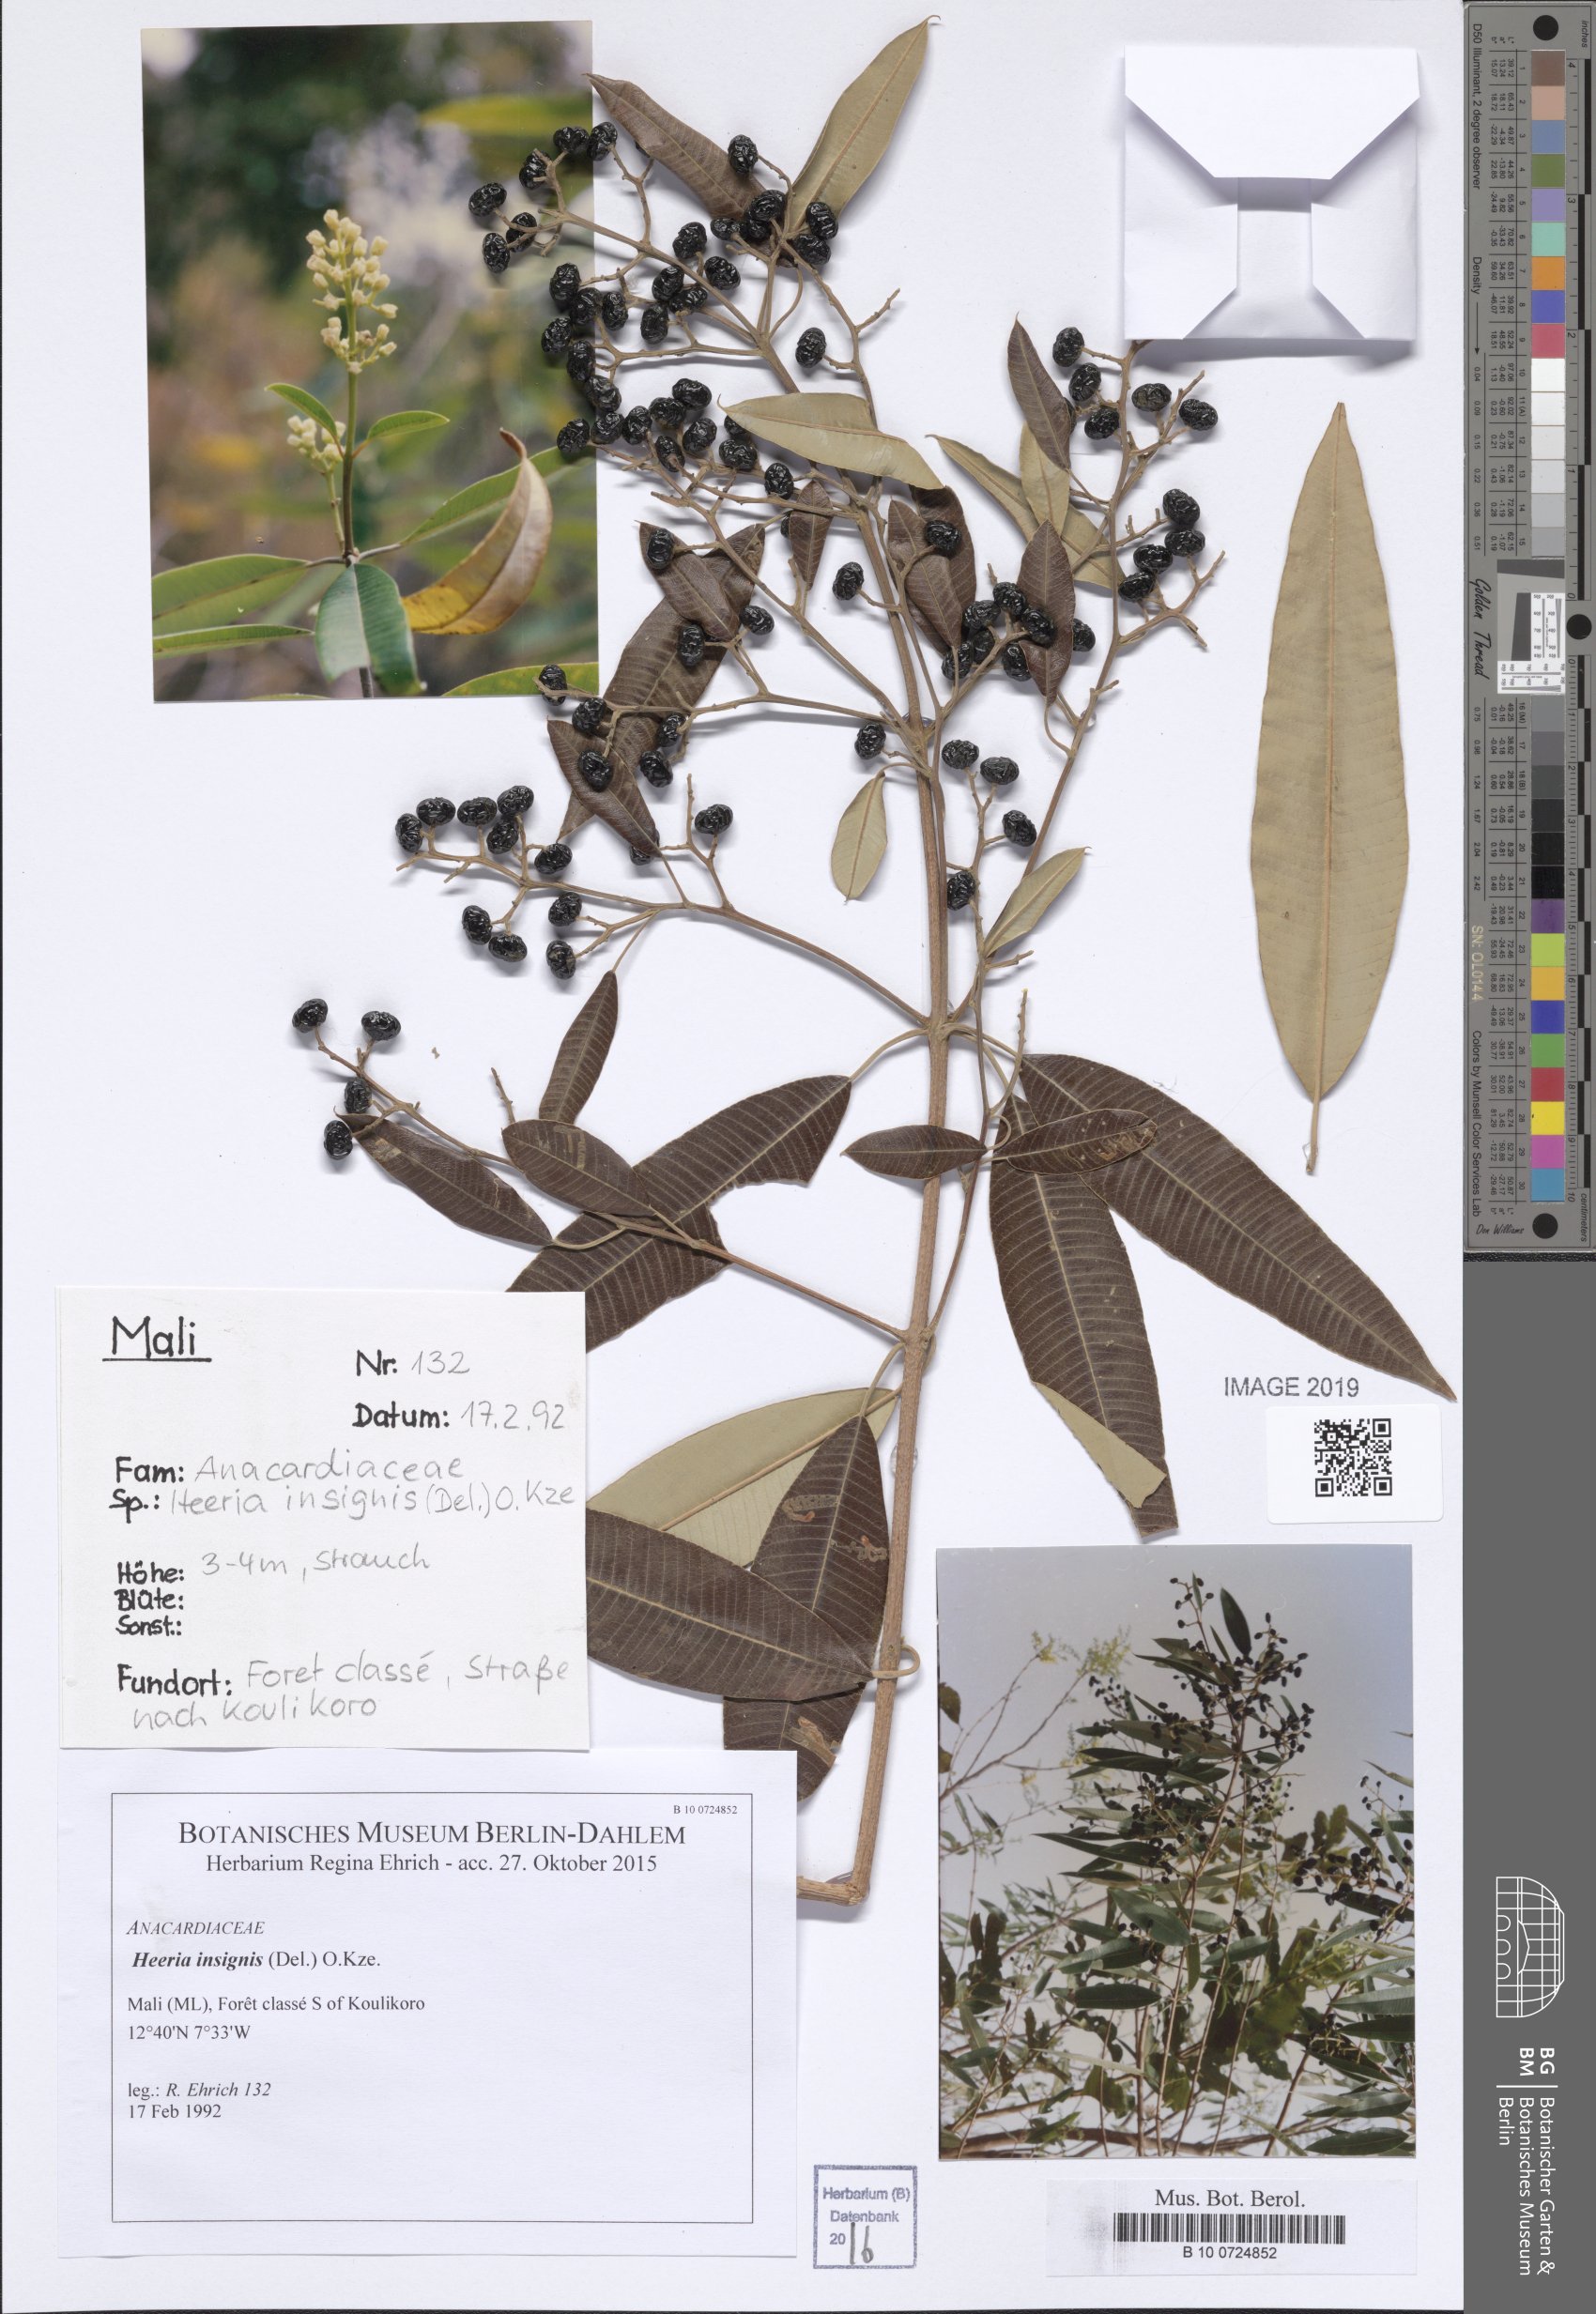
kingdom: Plantae
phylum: Tracheophyta
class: Magnoliopsida
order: Sapindales
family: Anacardiaceae
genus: Ozoroa
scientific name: Ozoroa
